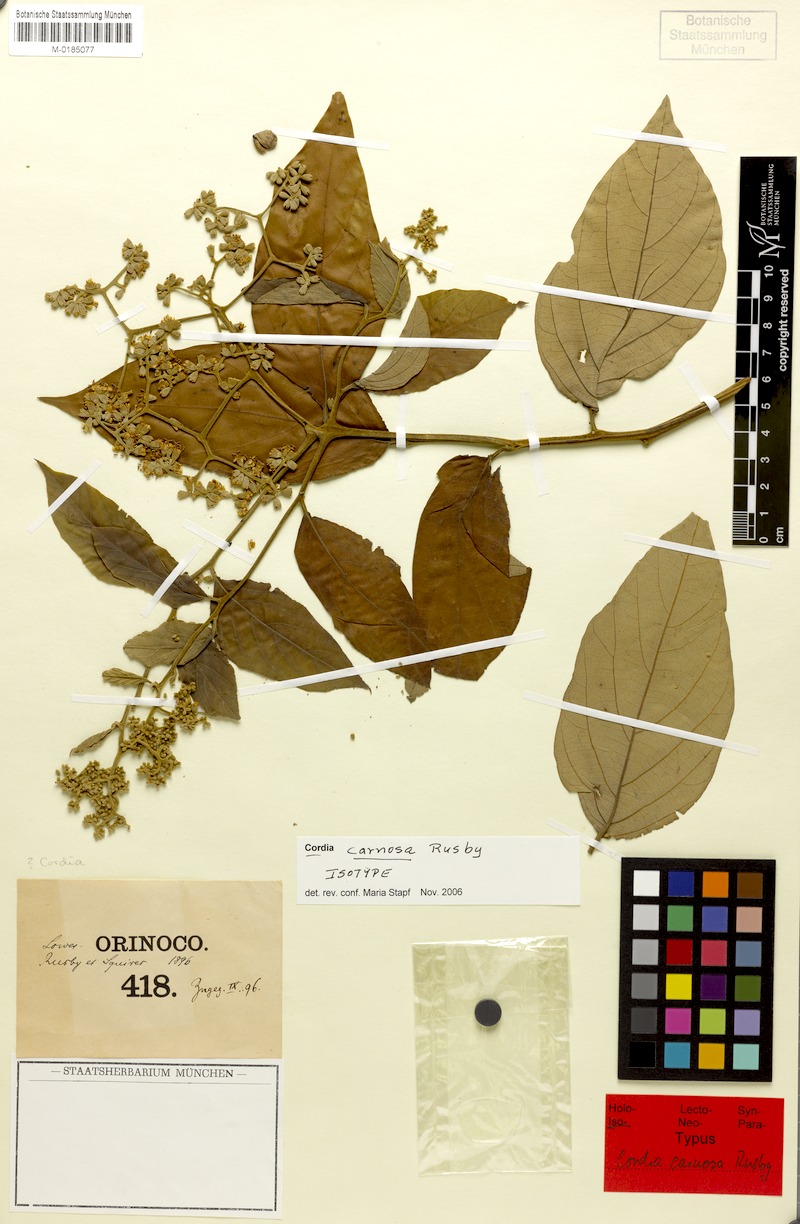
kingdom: Plantae
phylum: Tracheophyta
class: Magnoliopsida
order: Boraginales
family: Cordiaceae
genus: Cordia
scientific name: Cordia bicolor
